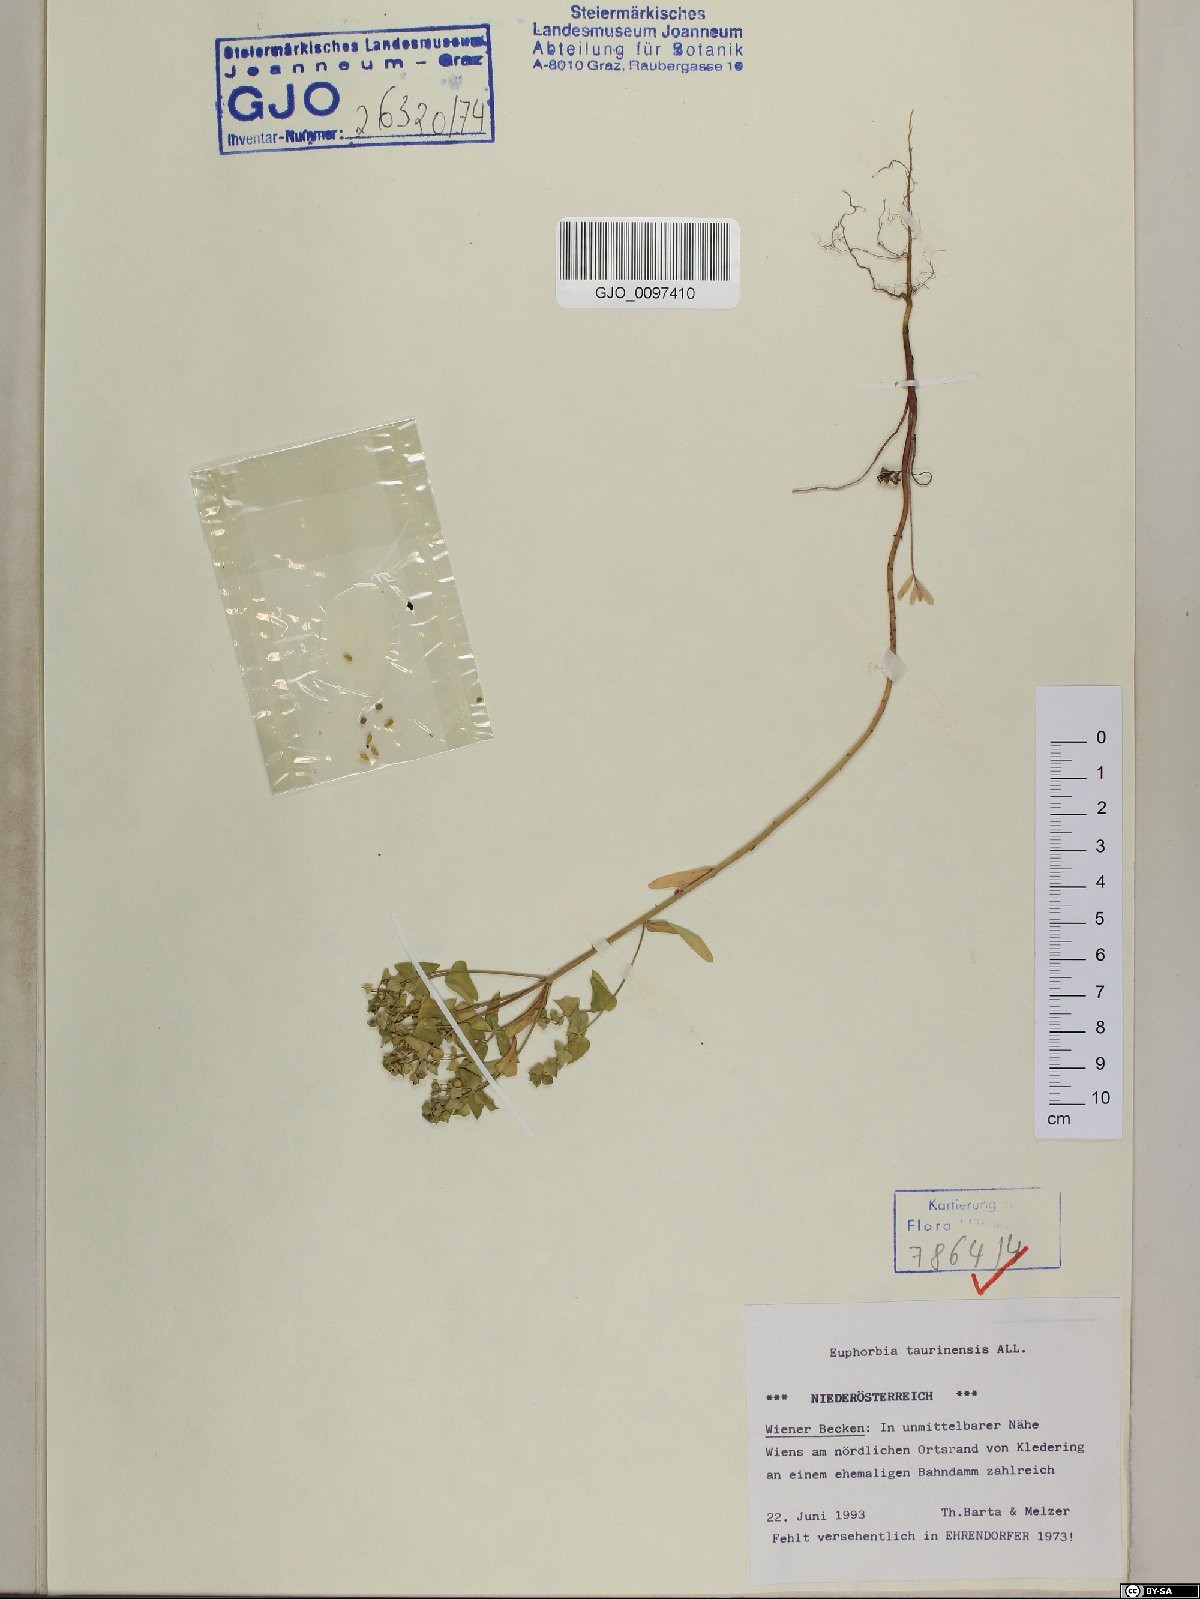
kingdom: Plantae
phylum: Tracheophyta
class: Magnoliopsida
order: Malpighiales
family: Euphorbiaceae
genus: Euphorbia
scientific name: Euphorbia taurinensis
